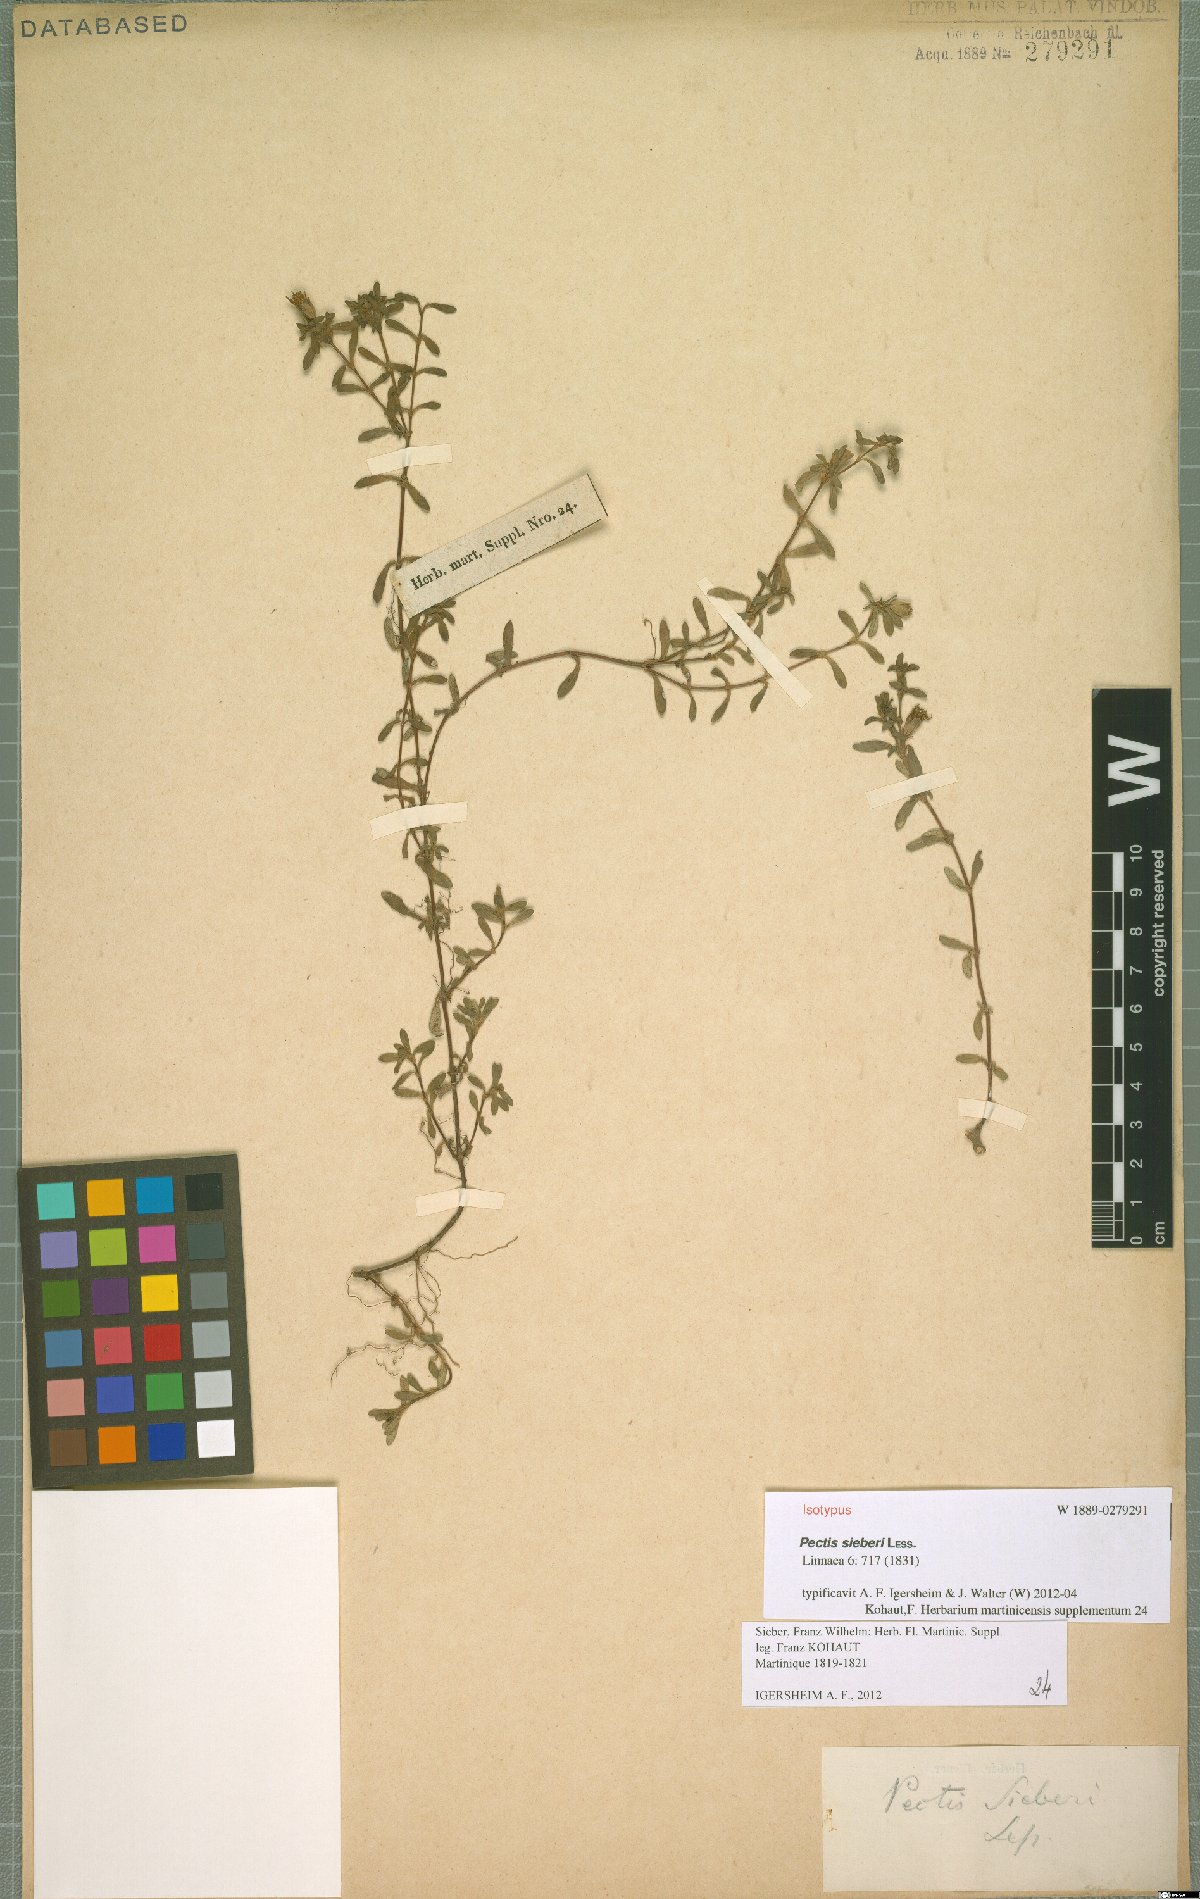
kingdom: Plantae
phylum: Tracheophyta
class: Magnoliopsida
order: Asterales
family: Asteraceae
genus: Pectis
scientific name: Pectis humifusa
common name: Yerba de san juan
